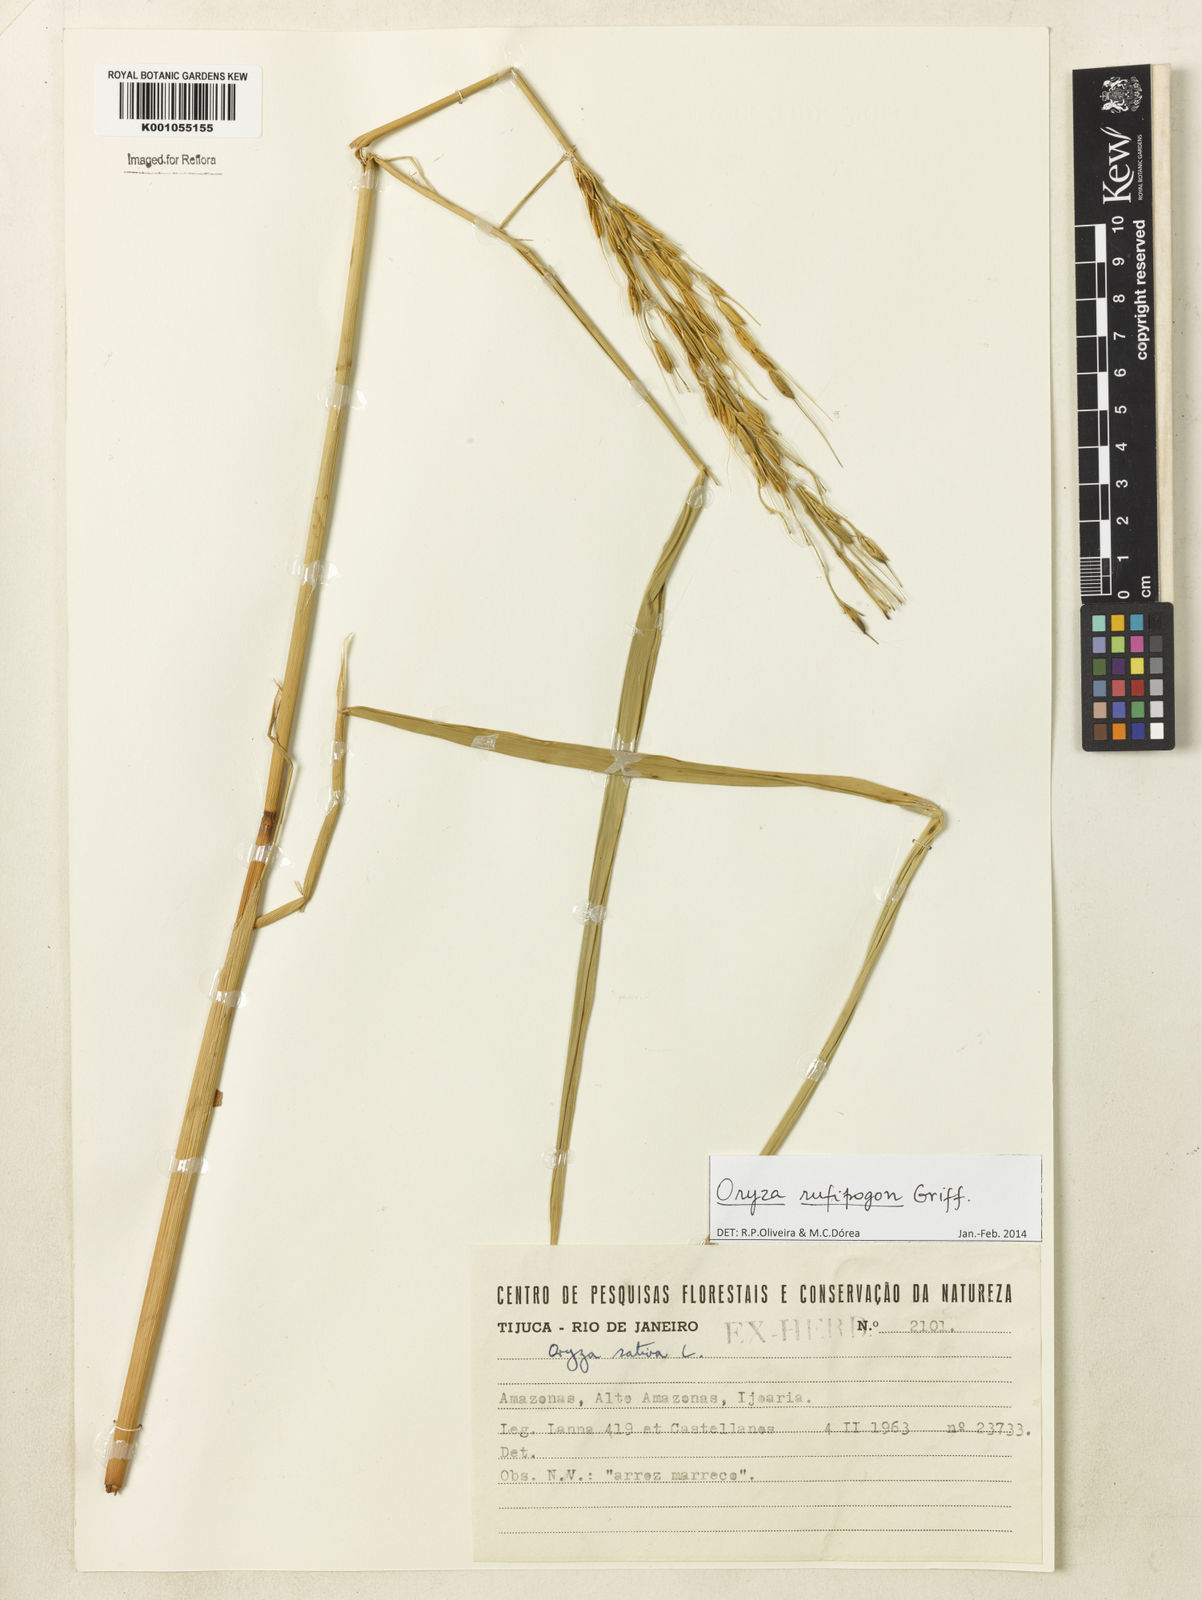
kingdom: Plantae
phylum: Tracheophyta
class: Liliopsida
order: Poales
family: Poaceae
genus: Oryza
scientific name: Oryza rufipogon
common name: Red rice
